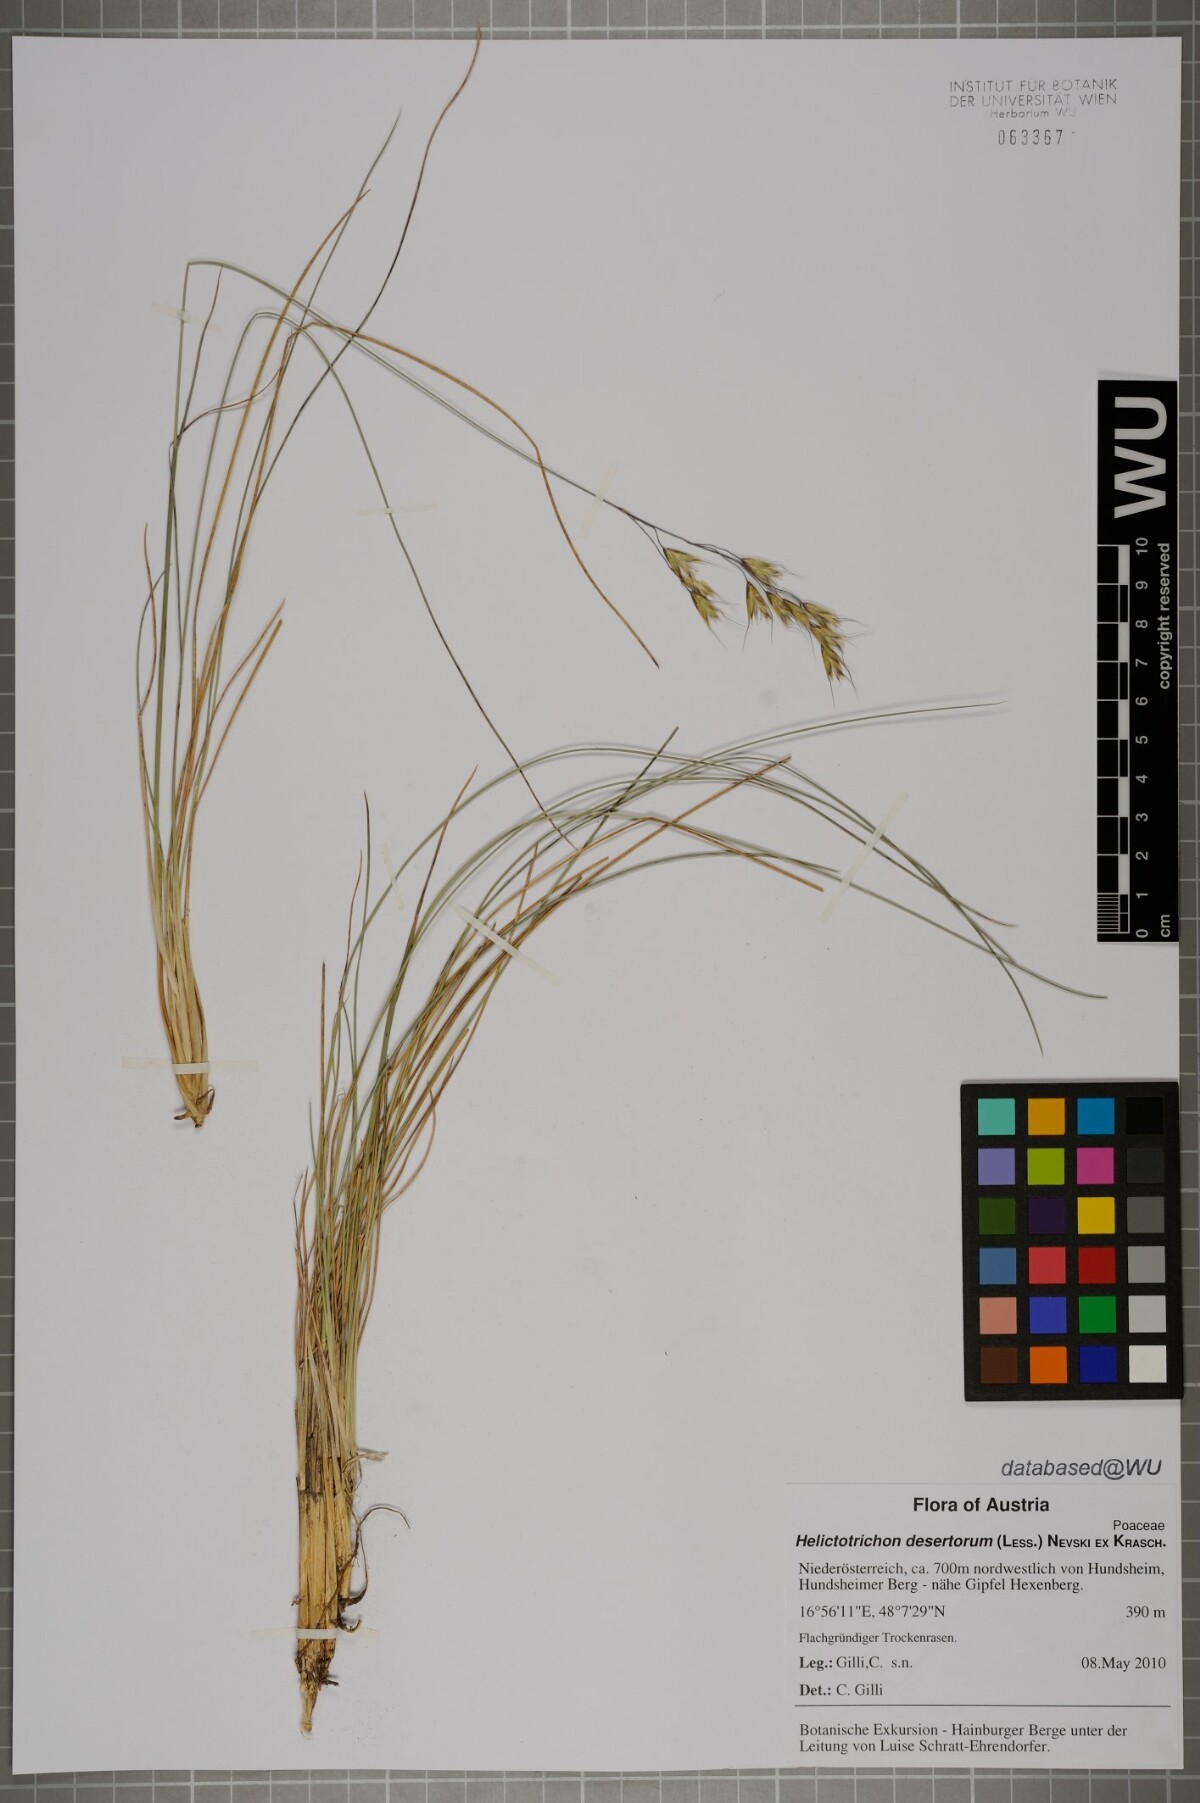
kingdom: Plantae
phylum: Tracheophyta
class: Liliopsida
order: Poales
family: Poaceae
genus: Helictotrichon
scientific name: Helictotrichon desertorum
